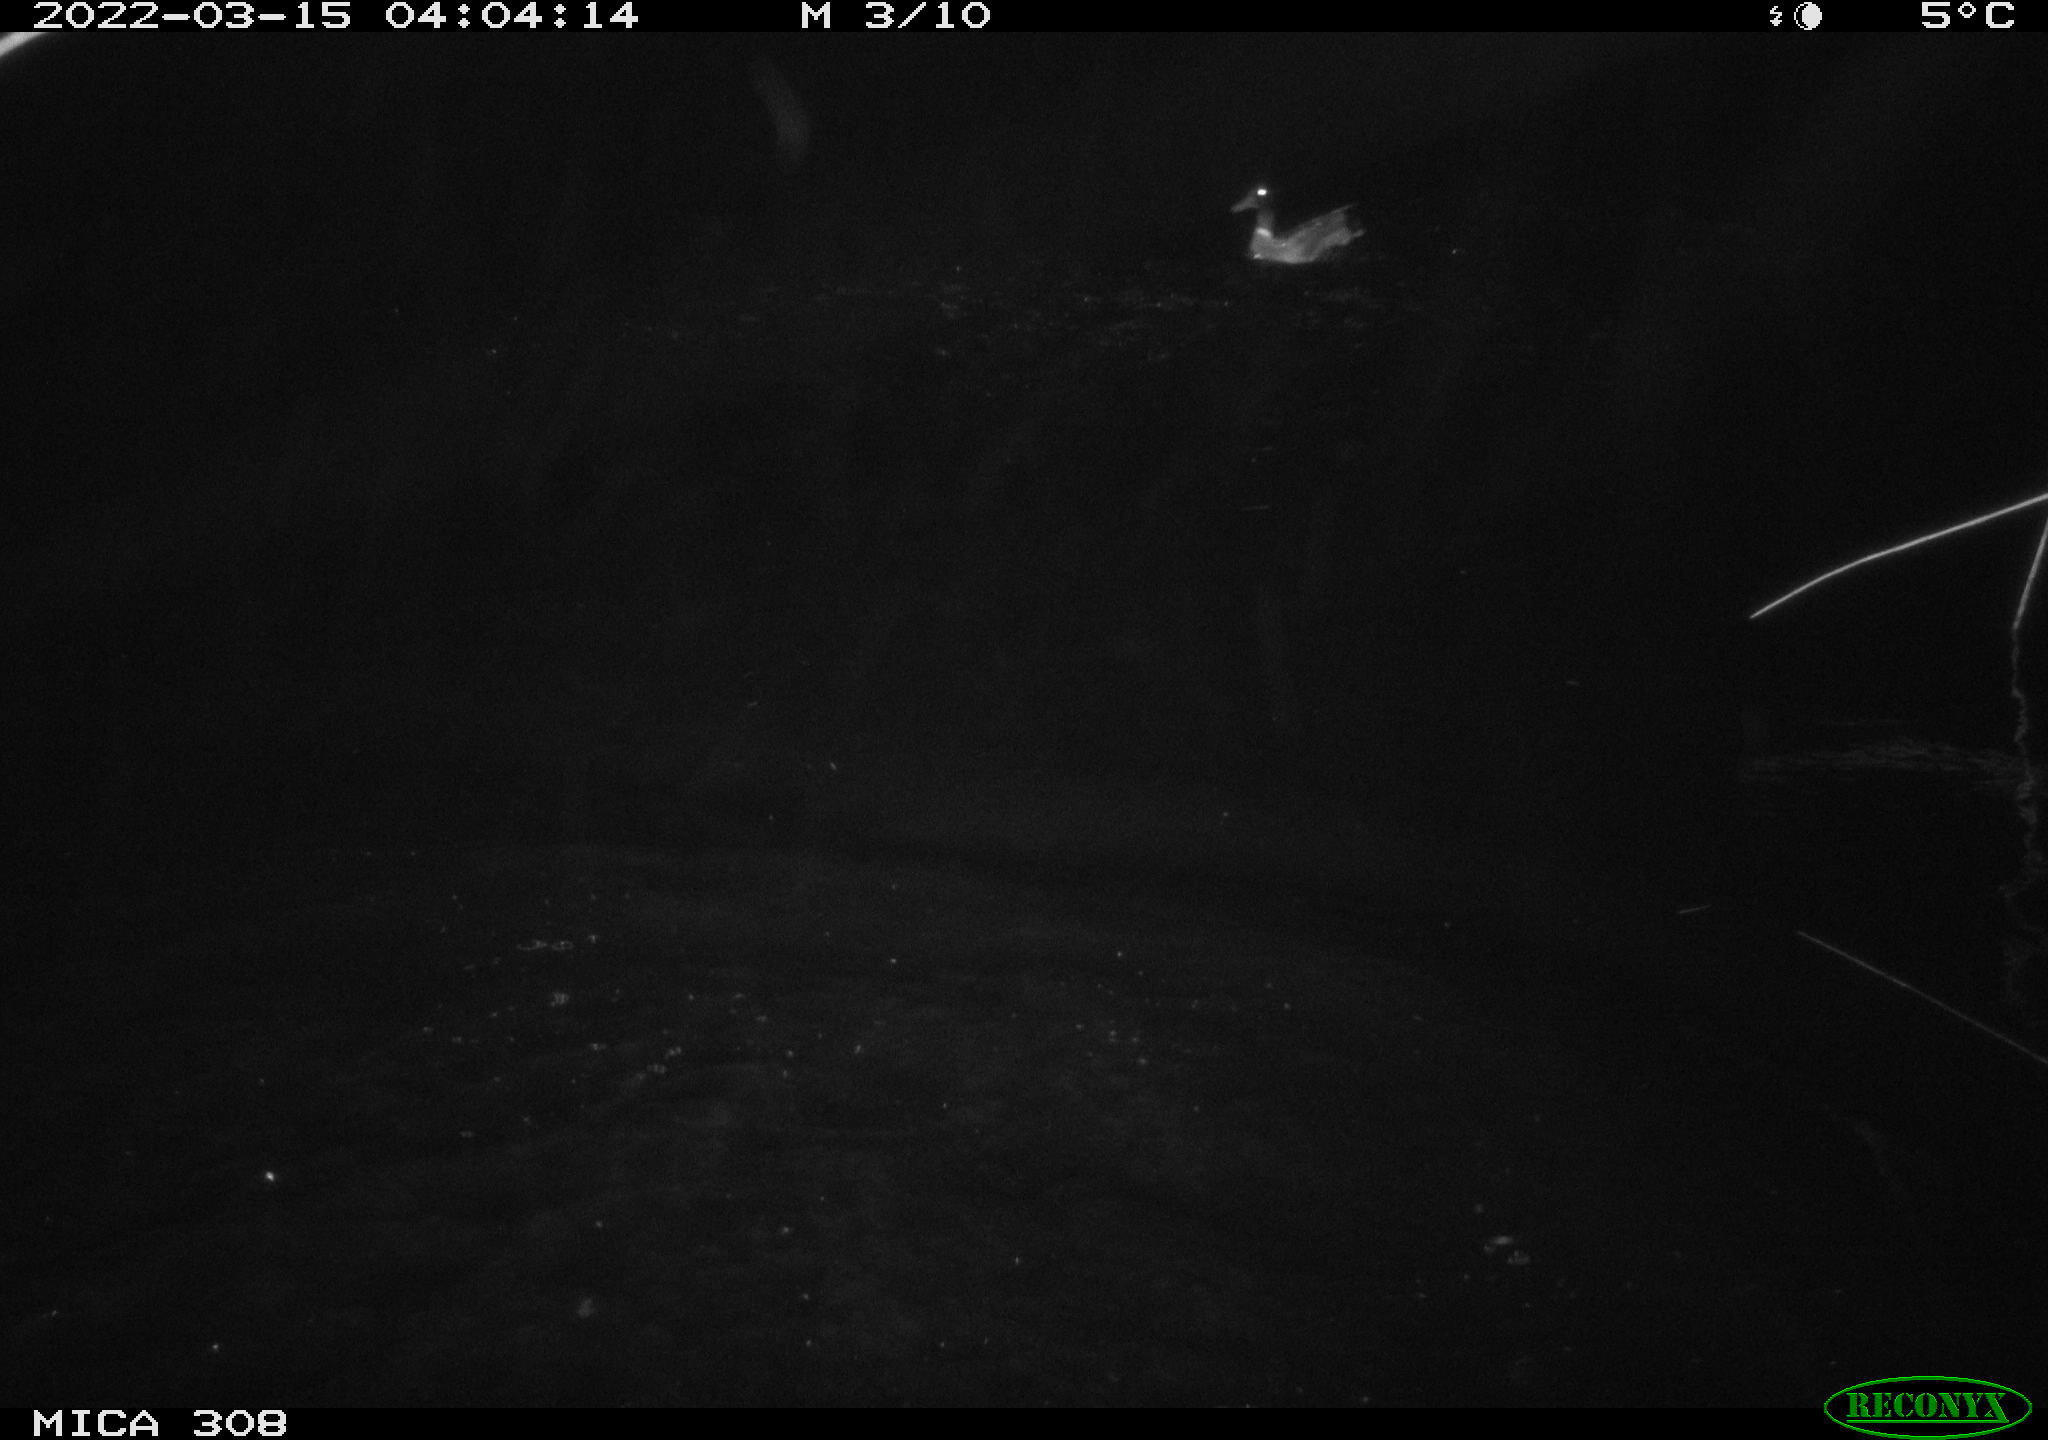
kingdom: Animalia
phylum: Chordata
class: Aves
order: Anseriformes
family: Anatidae
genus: Anas
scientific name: Anas platyrhynchos
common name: Mallard
